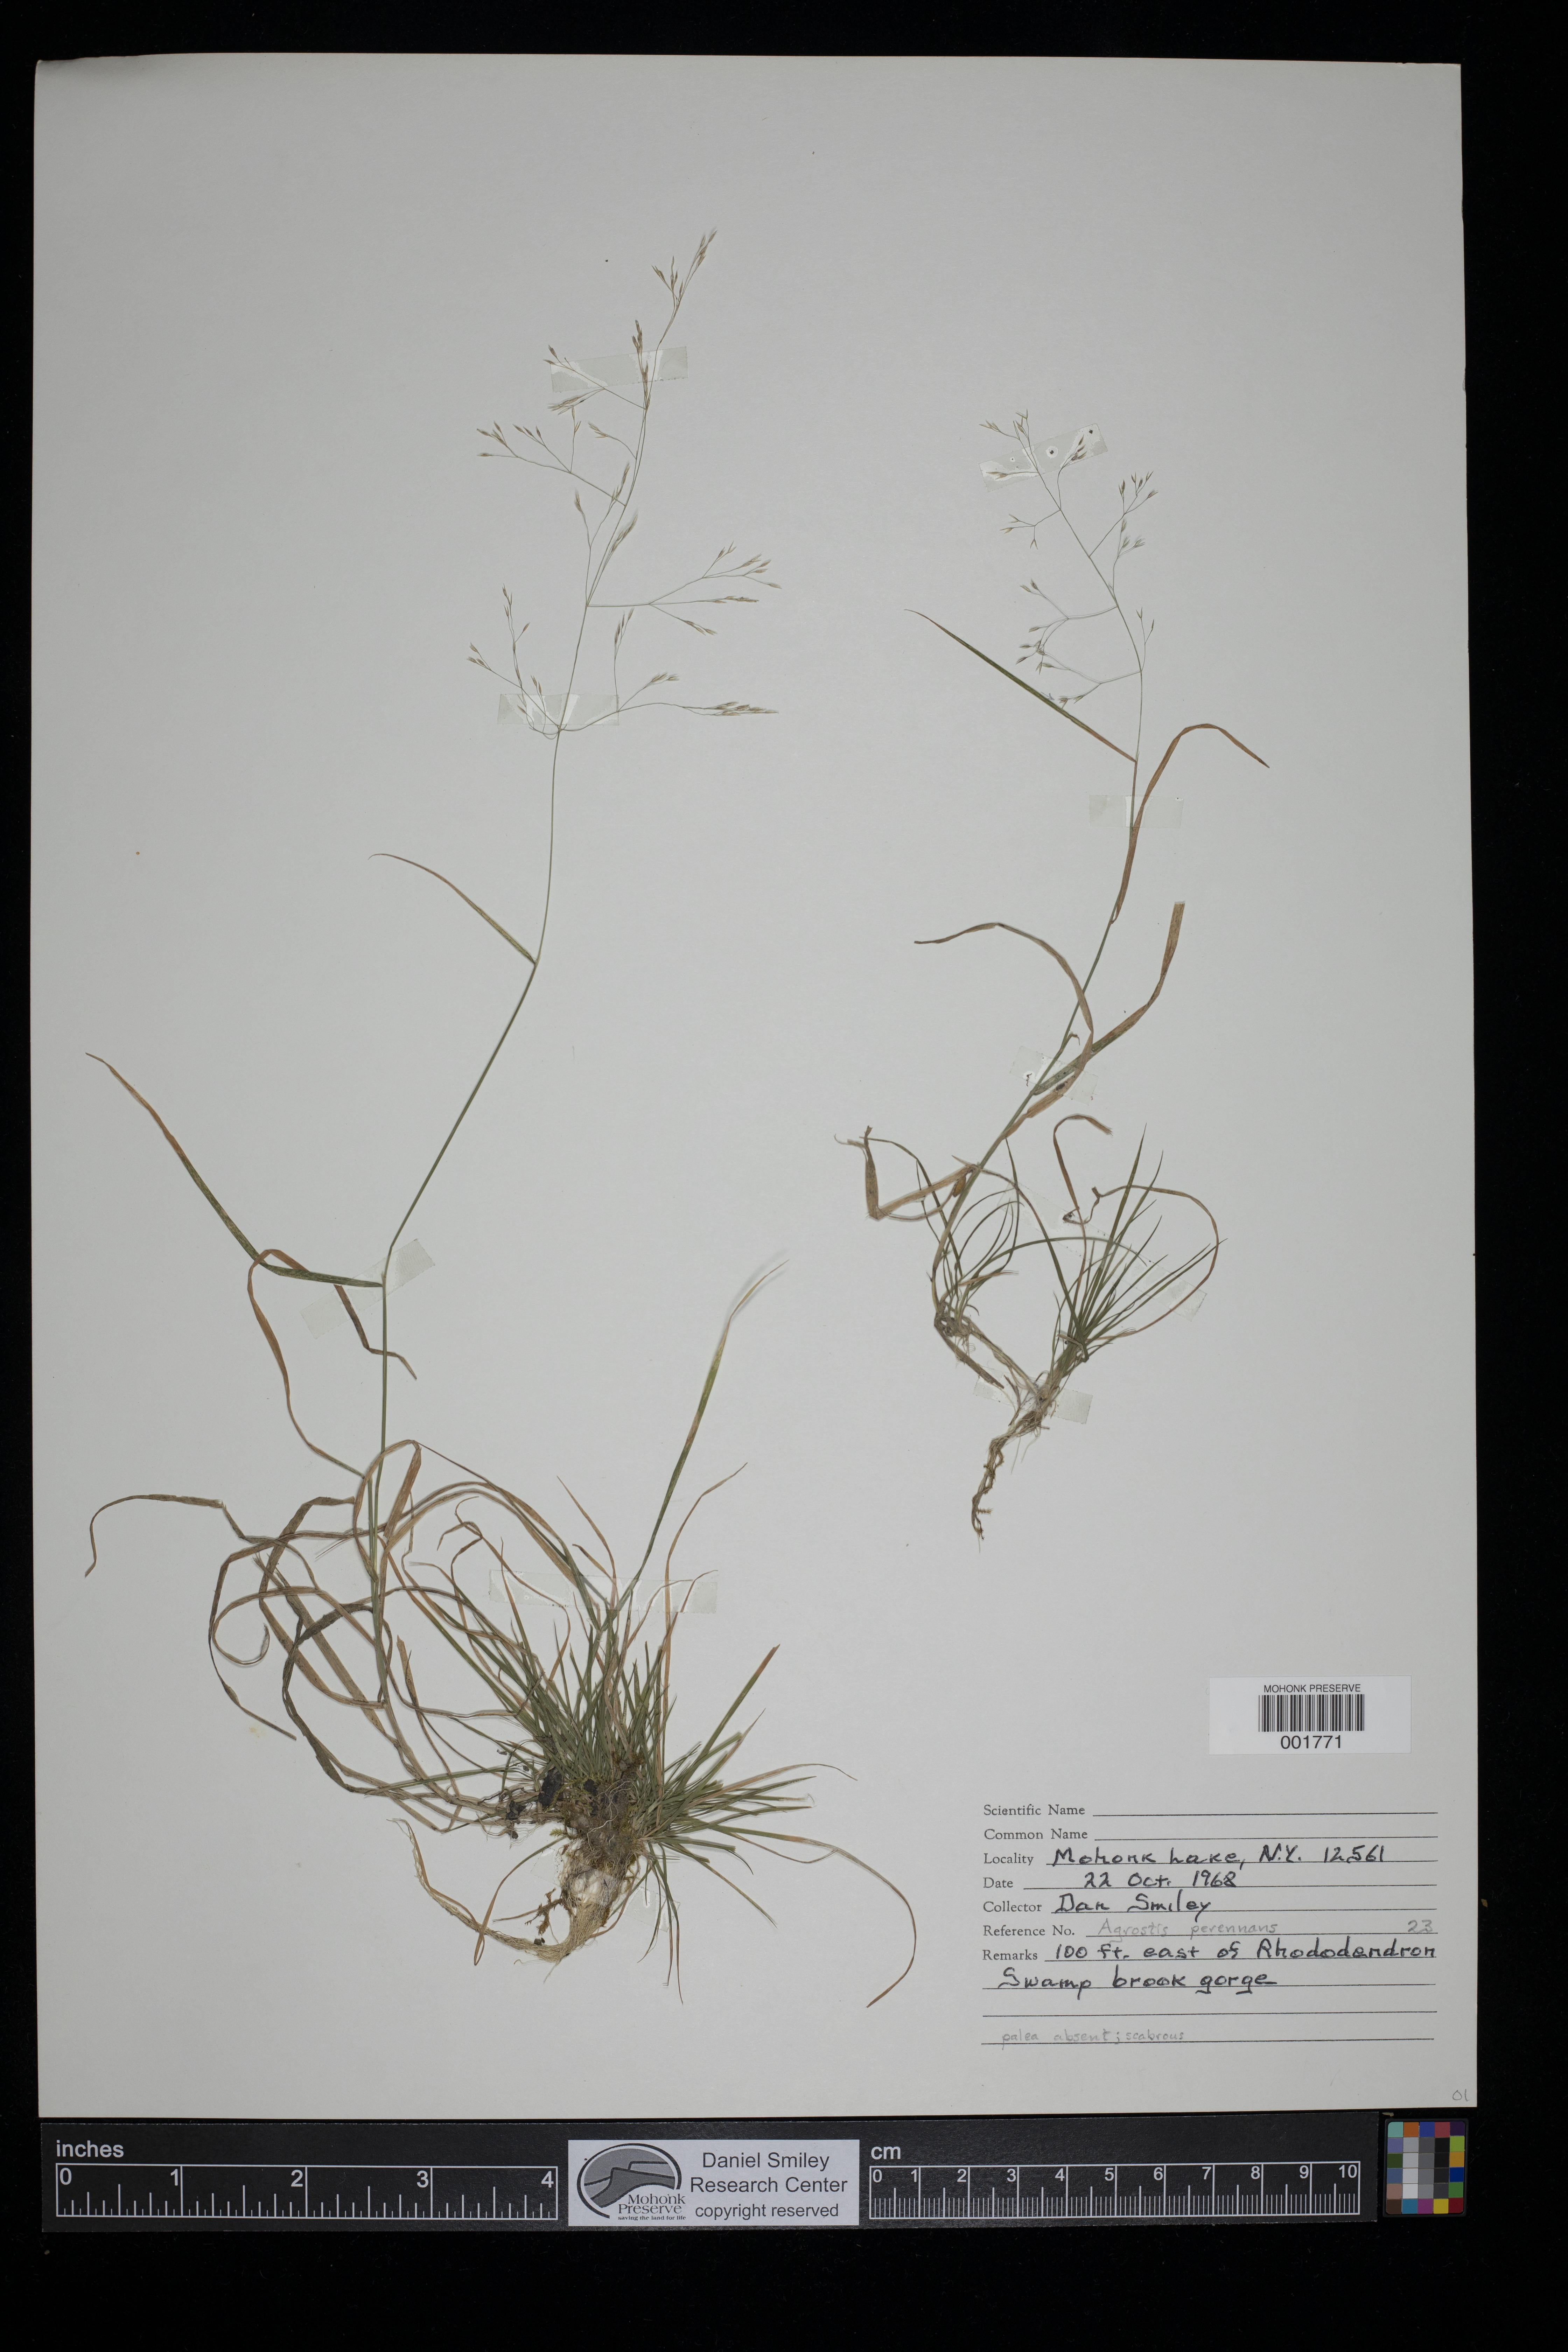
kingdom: Plantae
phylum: Tracheophyta
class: Liliopsida
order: Poales
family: Poaceae
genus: Agrostis
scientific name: Agrostis perennans
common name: Autumn bent
